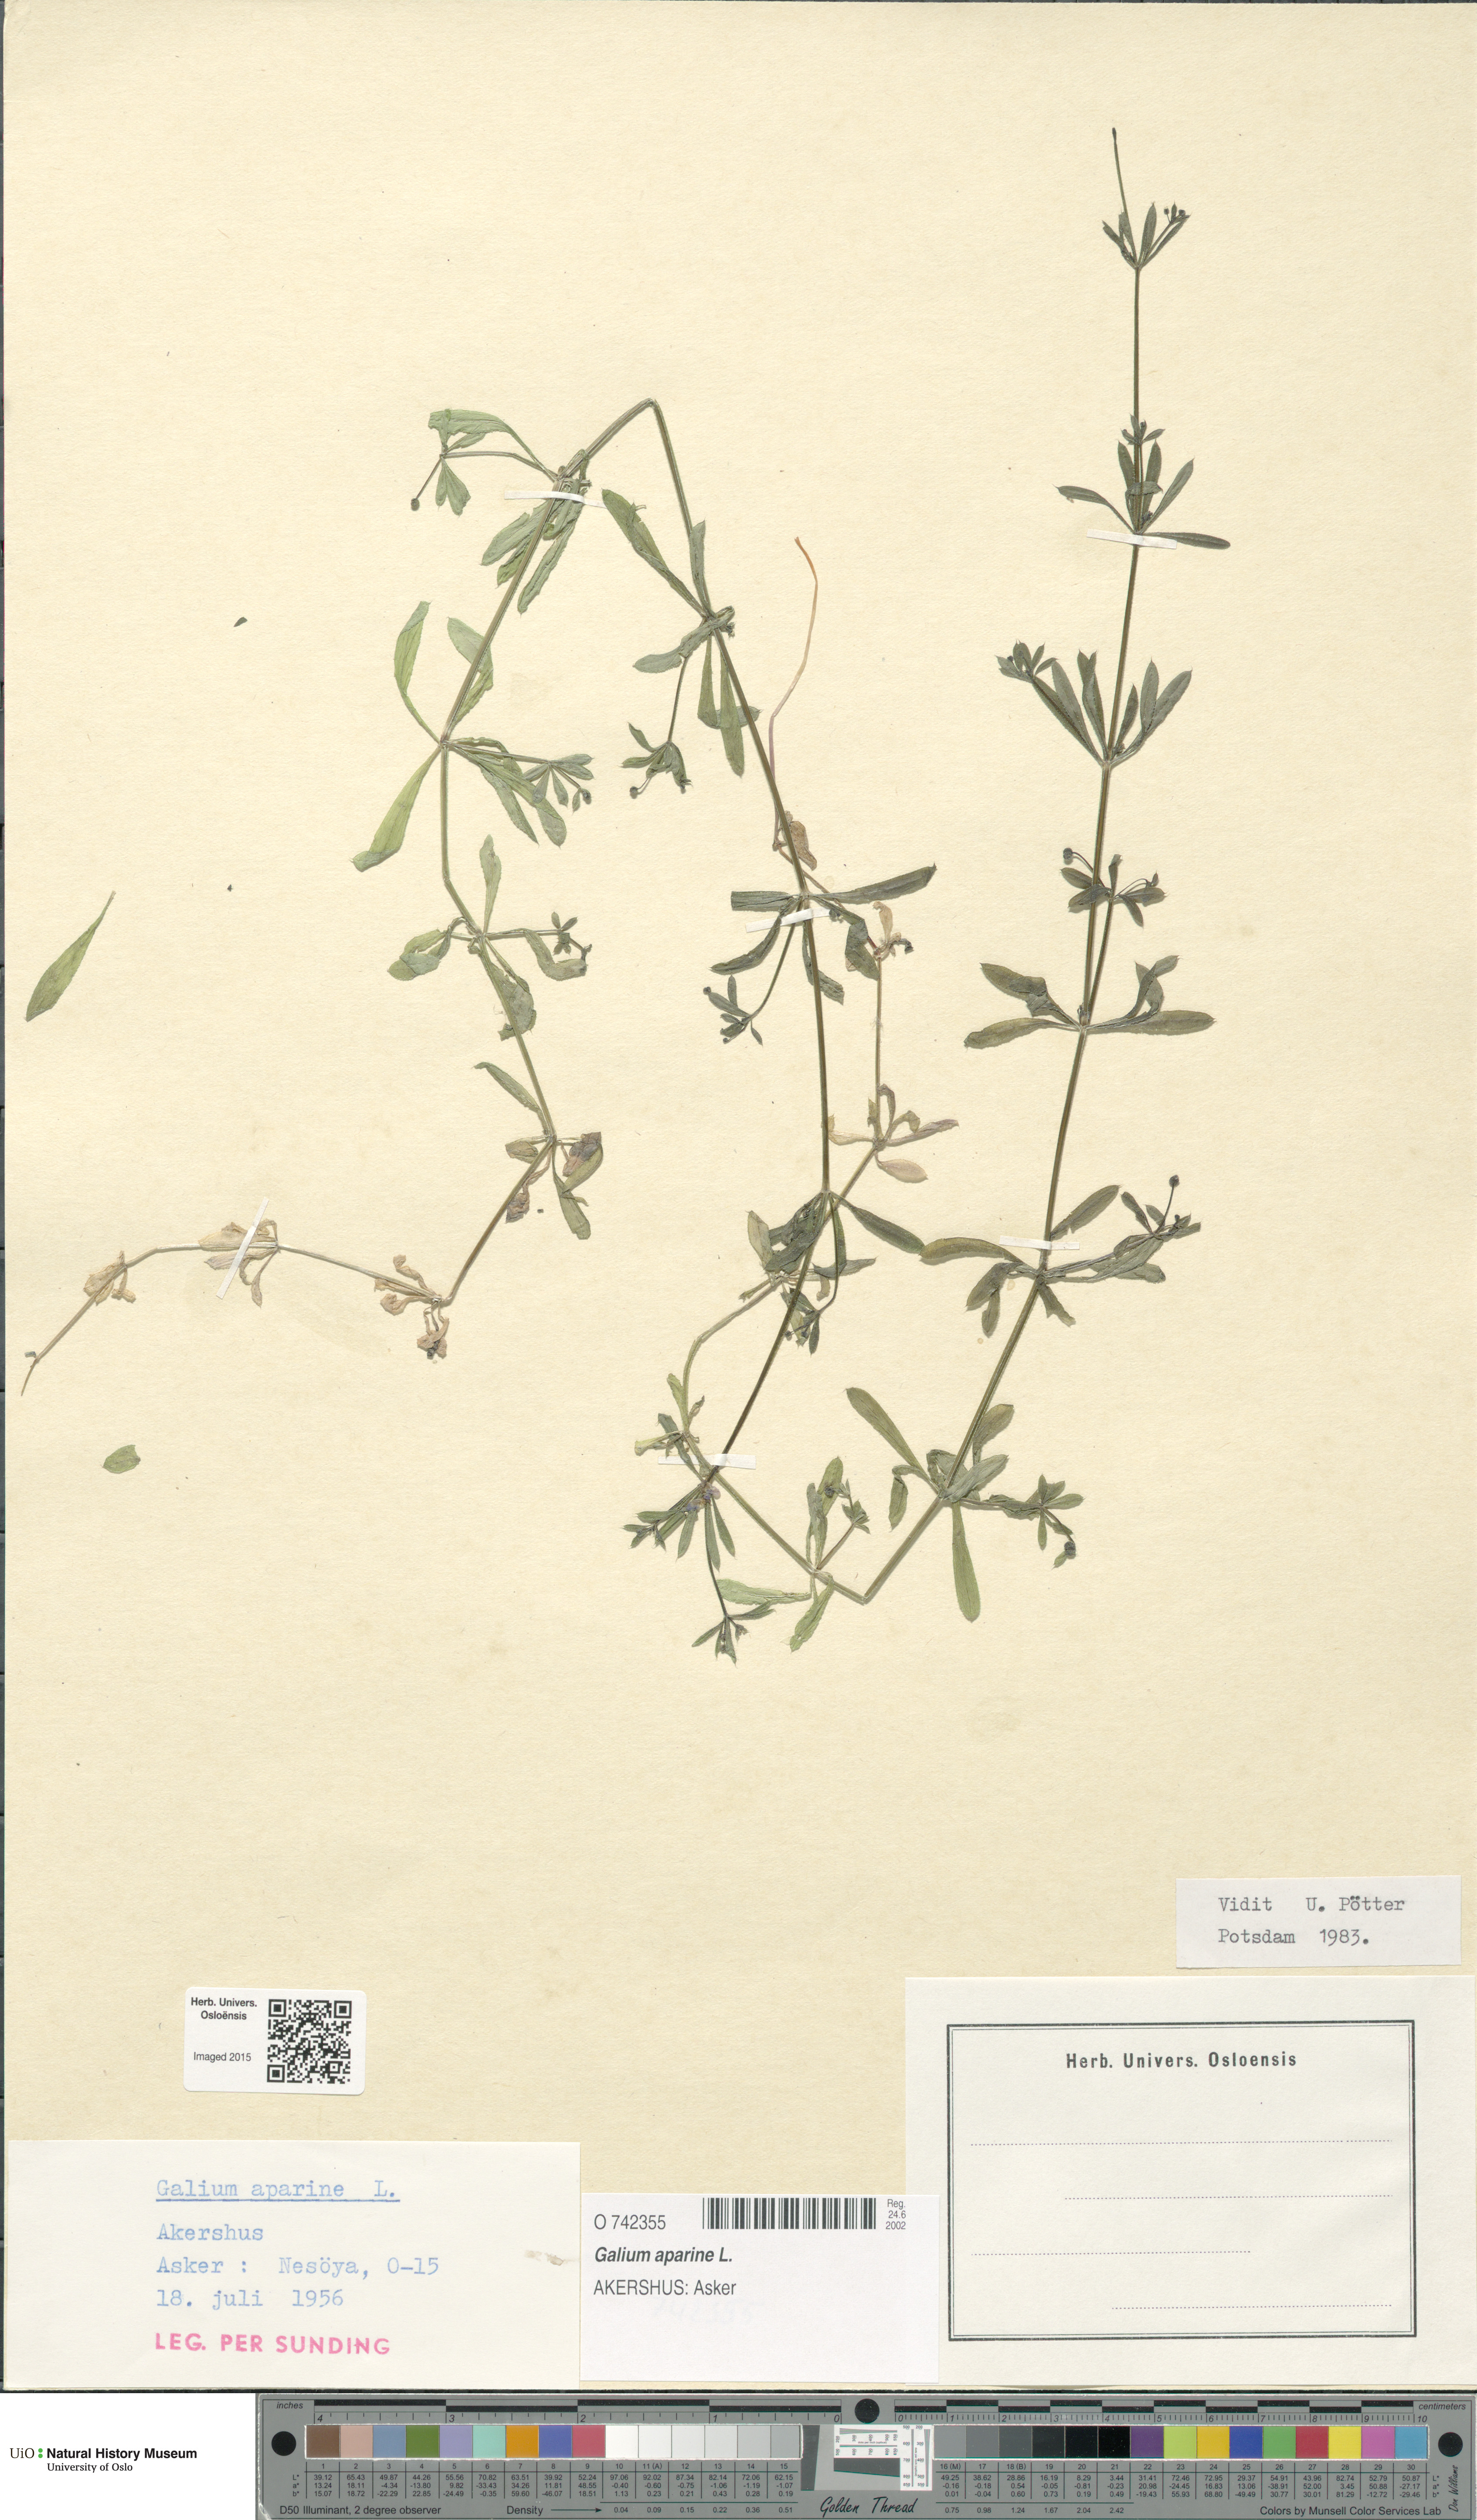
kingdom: Plantae
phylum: Tracheophyta
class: Magnoliopsida
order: Gentianales
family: Rubiaceae
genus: Galium
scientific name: Galium aparine
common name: Cleavers
